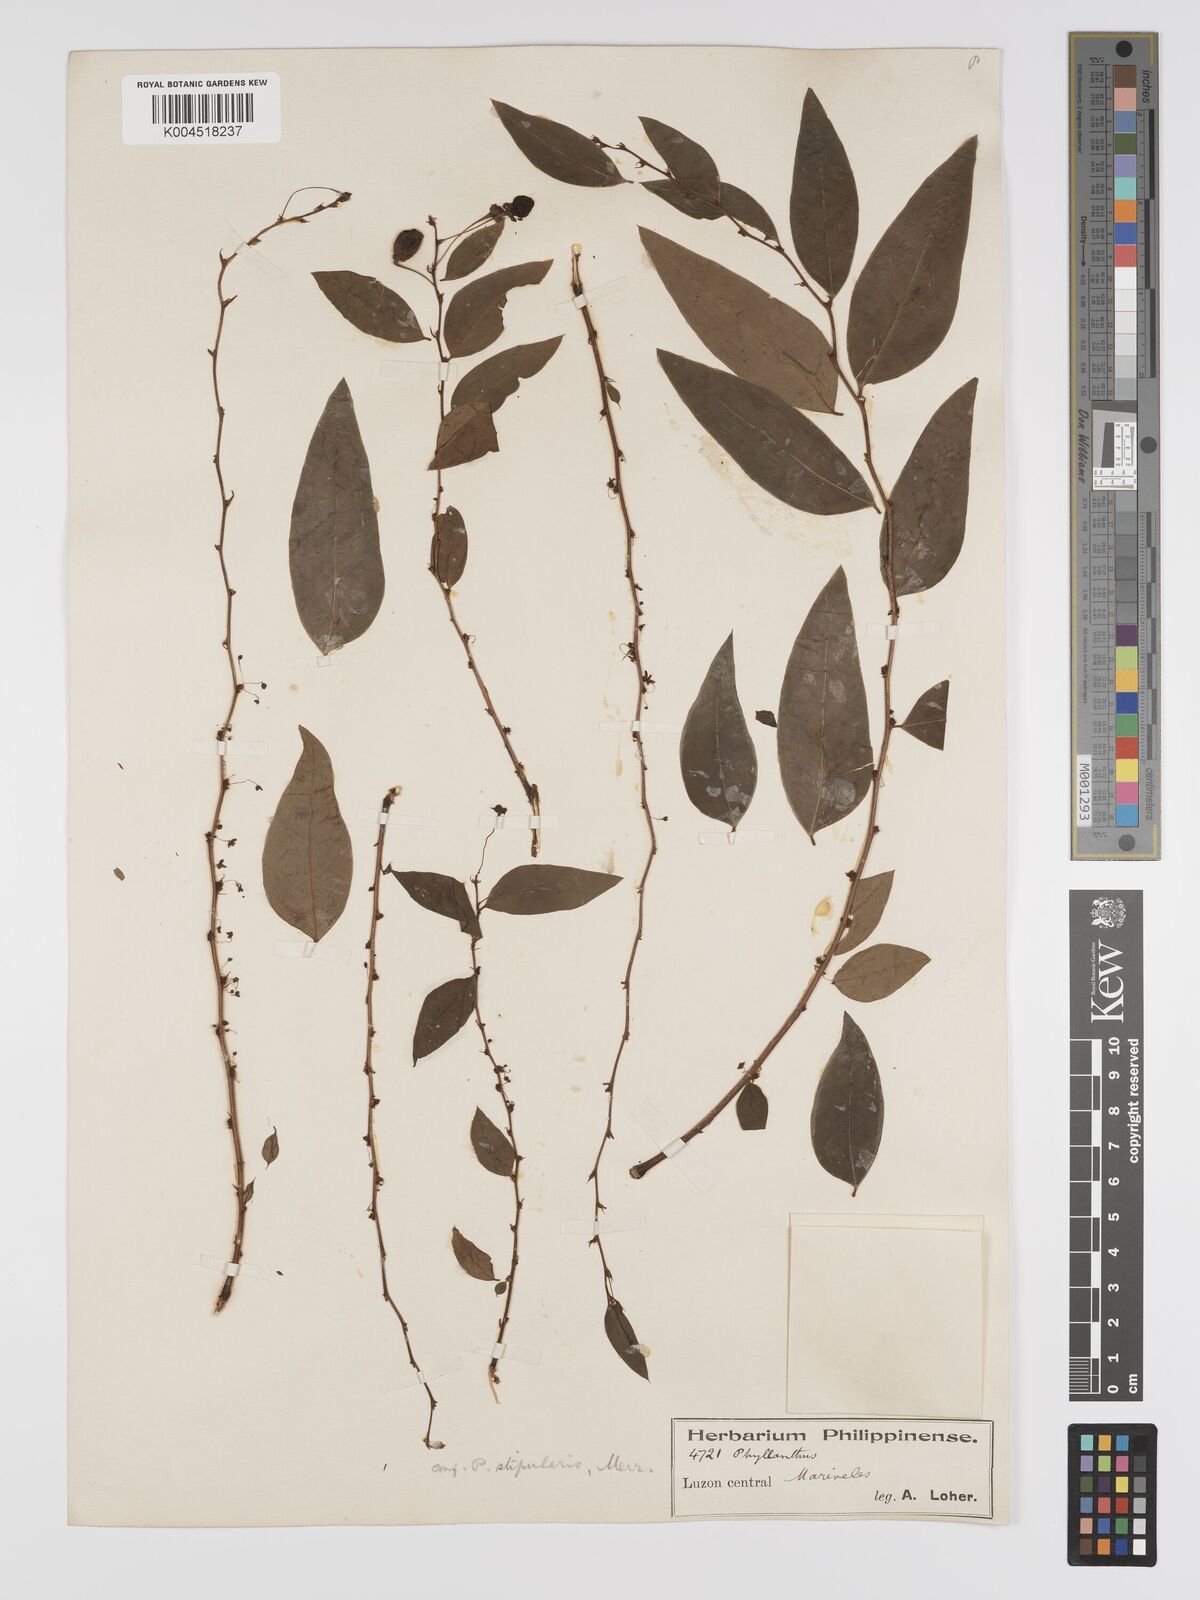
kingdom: Plantae
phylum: Tracheophyta
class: Magnoliopsida
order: Malpighiales
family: Phyllanthaceae
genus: Phyllanthus
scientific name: Phyllanthus stipularis
